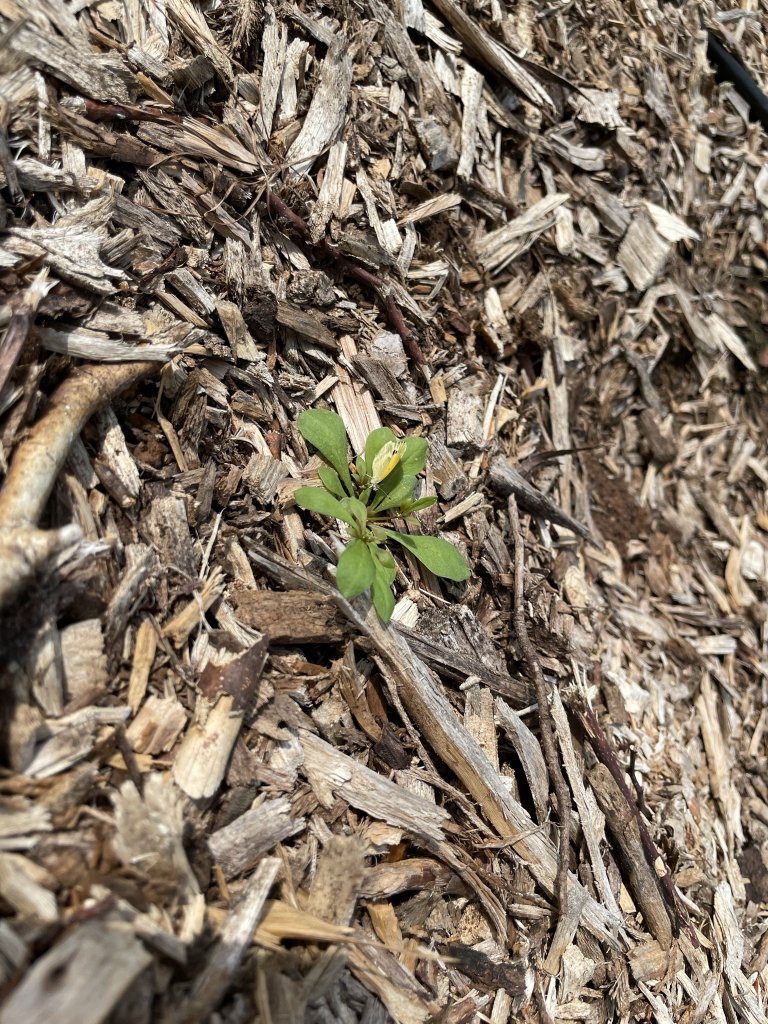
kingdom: Animalia
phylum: Arthropoda
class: Insecta
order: Lepidoptera
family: Pieridae
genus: Nathalis
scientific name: Nathalis iole
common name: Dainty Sulphur
